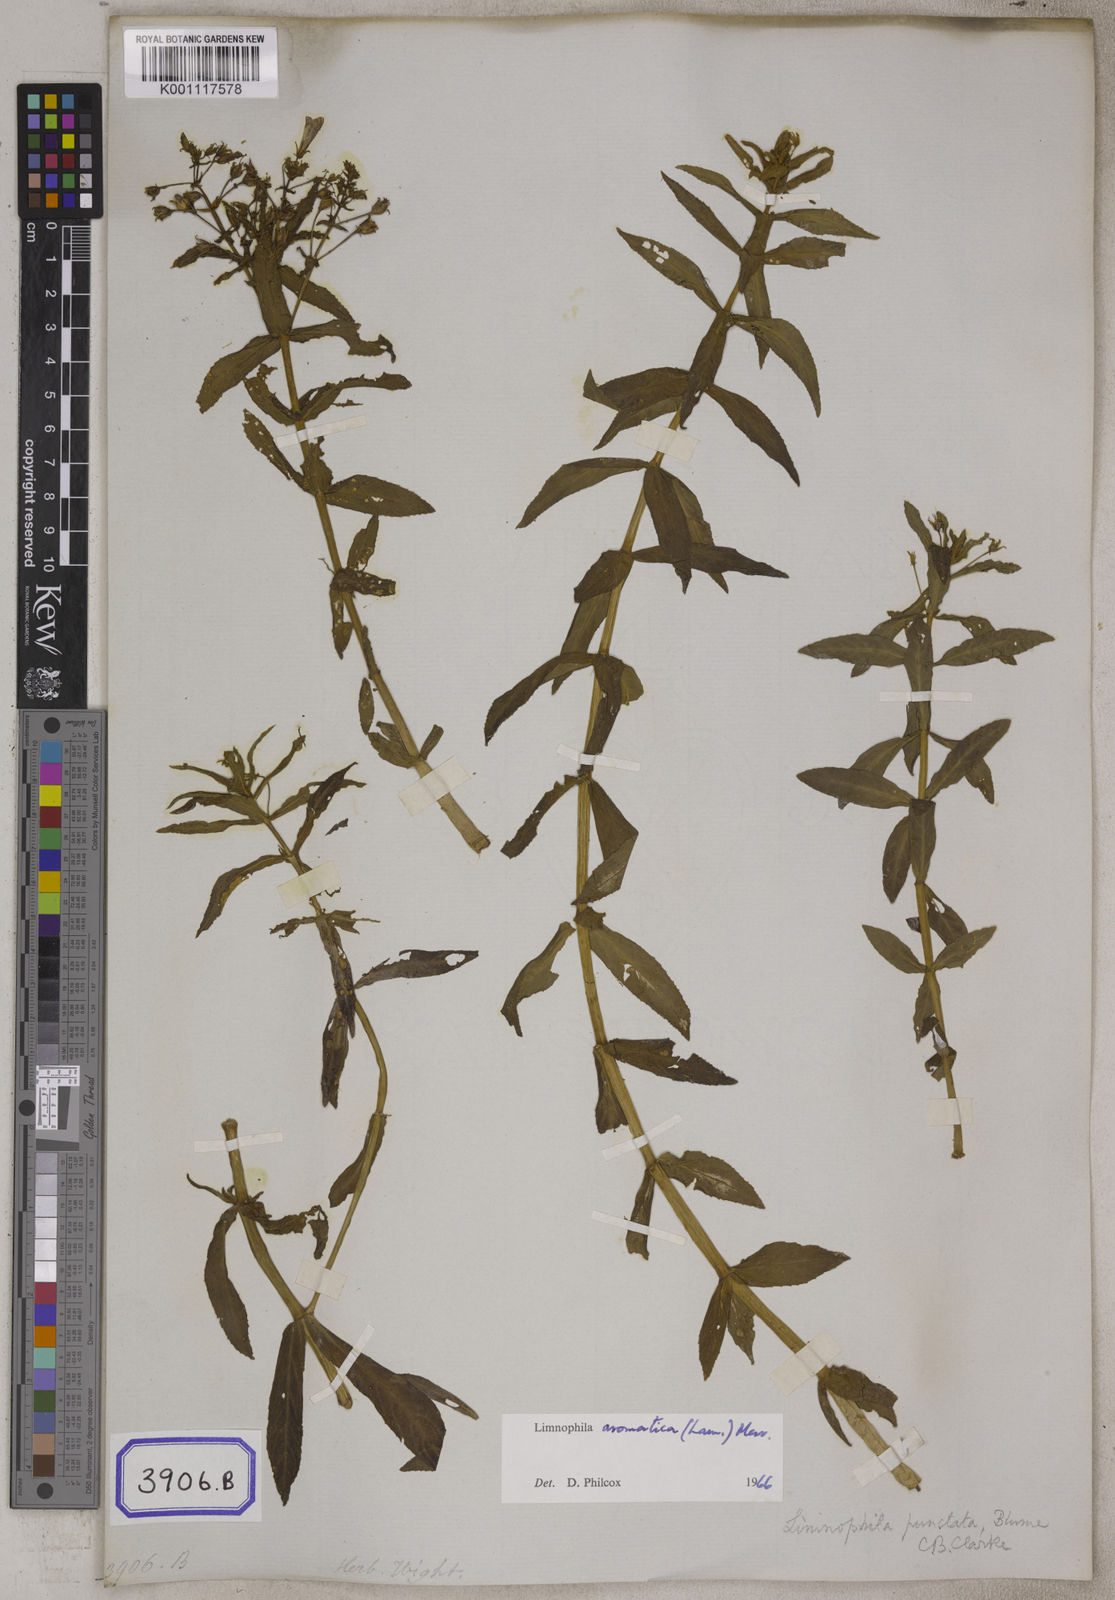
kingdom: Plantae
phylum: Tracheophyta
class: Magnoliopsida
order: Lamiales
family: Plantaginaceae
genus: Limnophila
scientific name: Limnophila aromatica
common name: Finger grass
